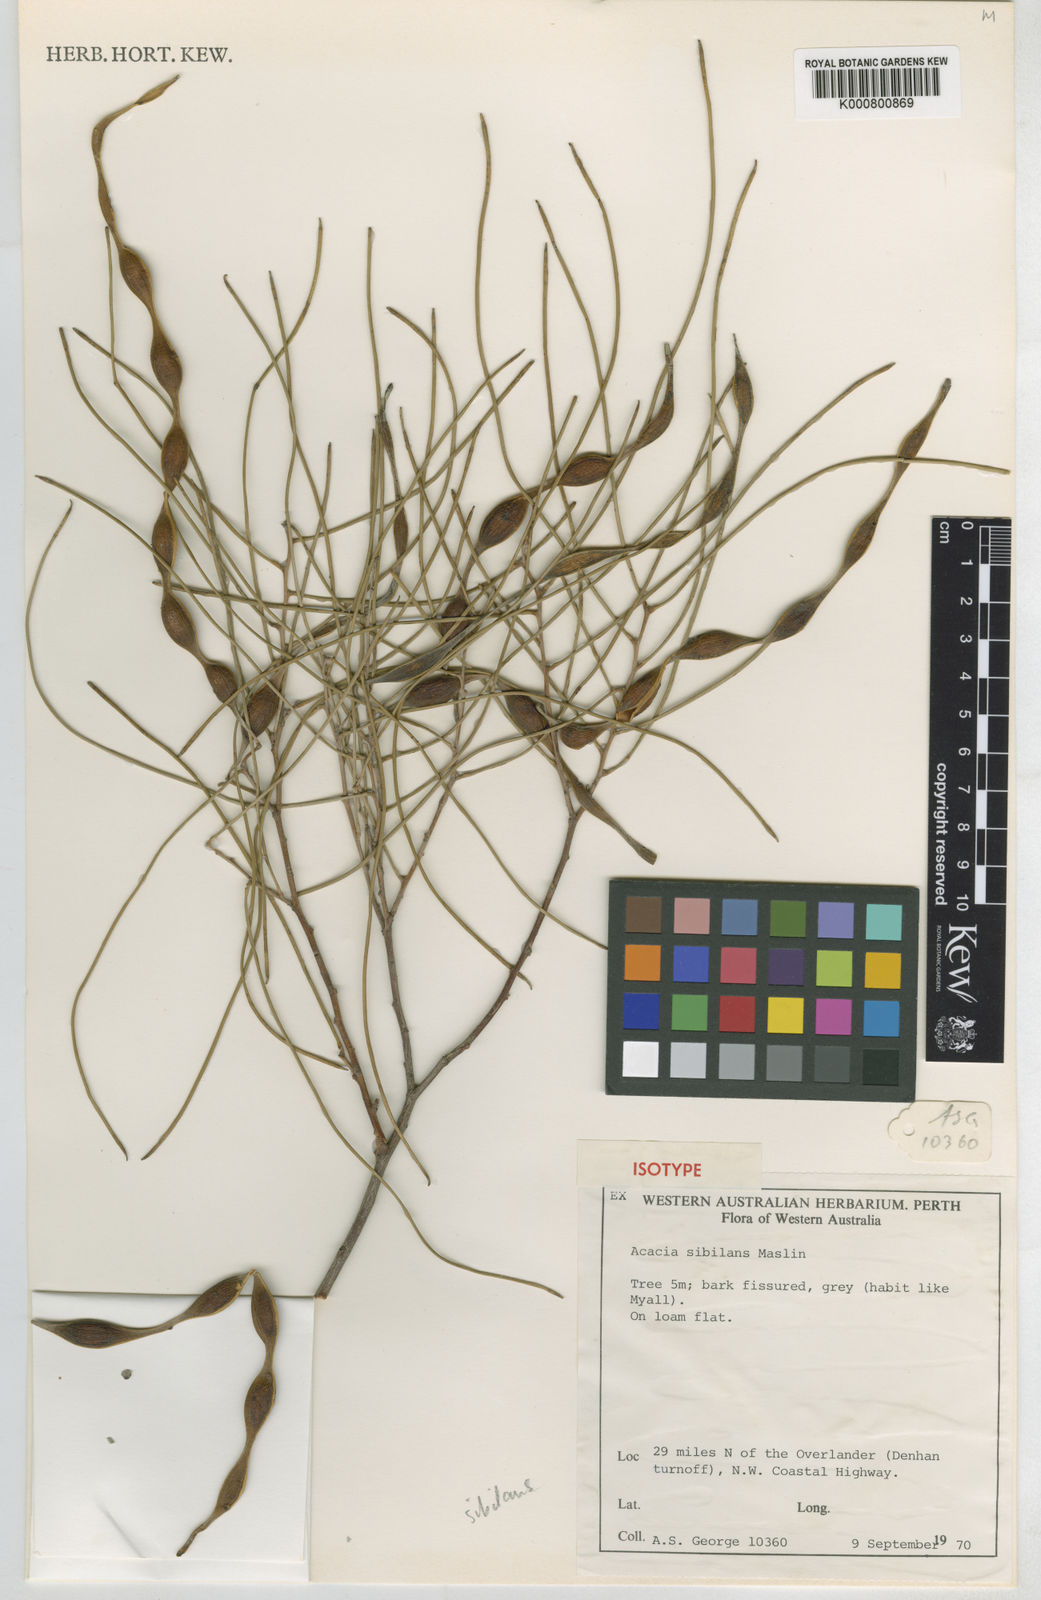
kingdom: Plantae
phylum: Tracheophyta
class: Magnoliopsida
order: Fabales
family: Fabaceae
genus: Acacia
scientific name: Acacia sibilans
